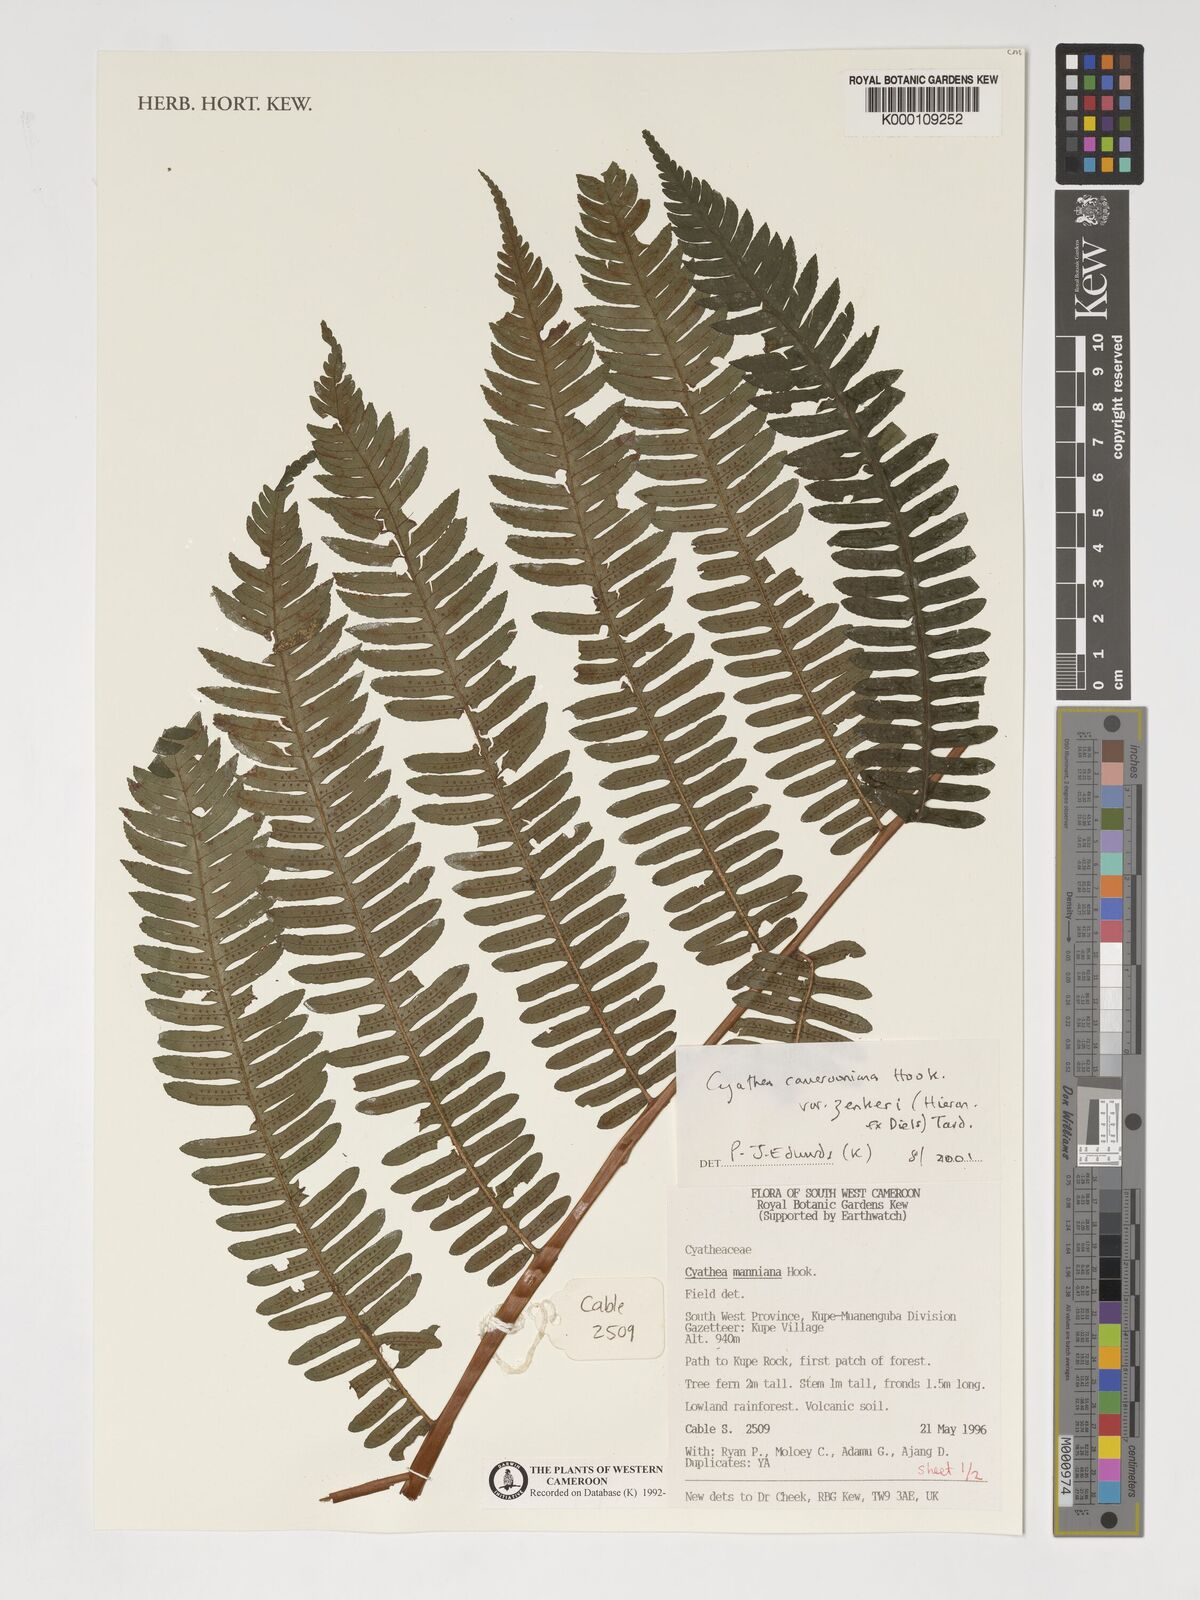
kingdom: Plantae
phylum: Tracheophyta
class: Polypodiopsida
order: Cyatheales
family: Cyatheaceae
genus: Alsophila
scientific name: Alsophila camerooniana
